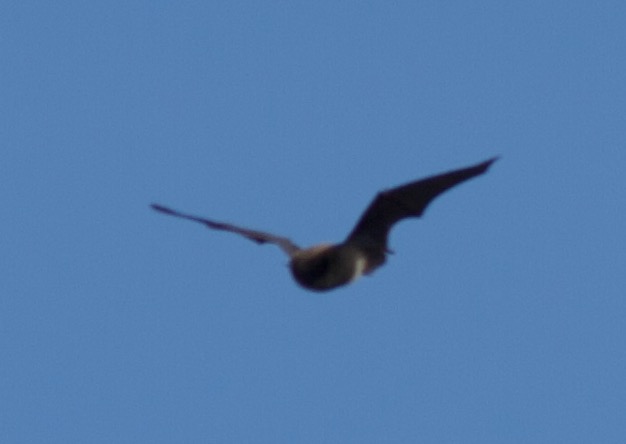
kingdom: Animalia
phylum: Chordata
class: Mammalia
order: Chiroptera
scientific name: Chiroptera
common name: Flagermus
